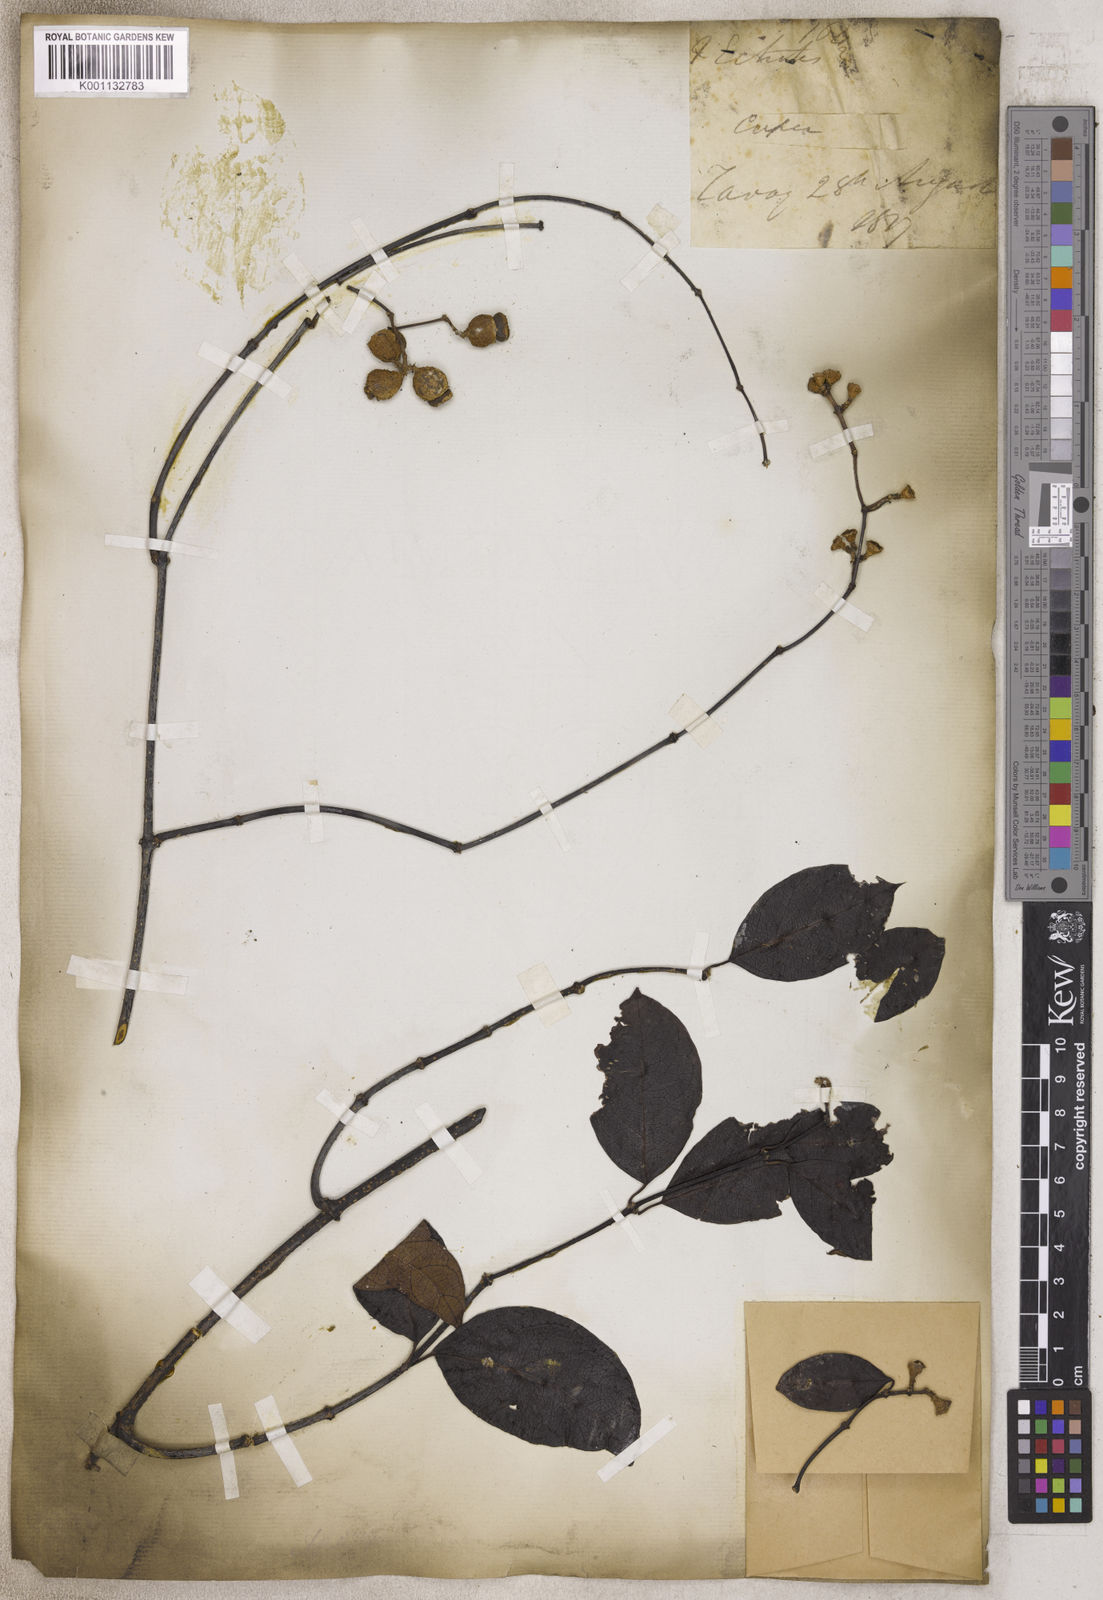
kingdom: Plantae
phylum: Tracheophyta
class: Magnoliopsida
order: Gentianales
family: Apocynaceae
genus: Echites
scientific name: Echites
